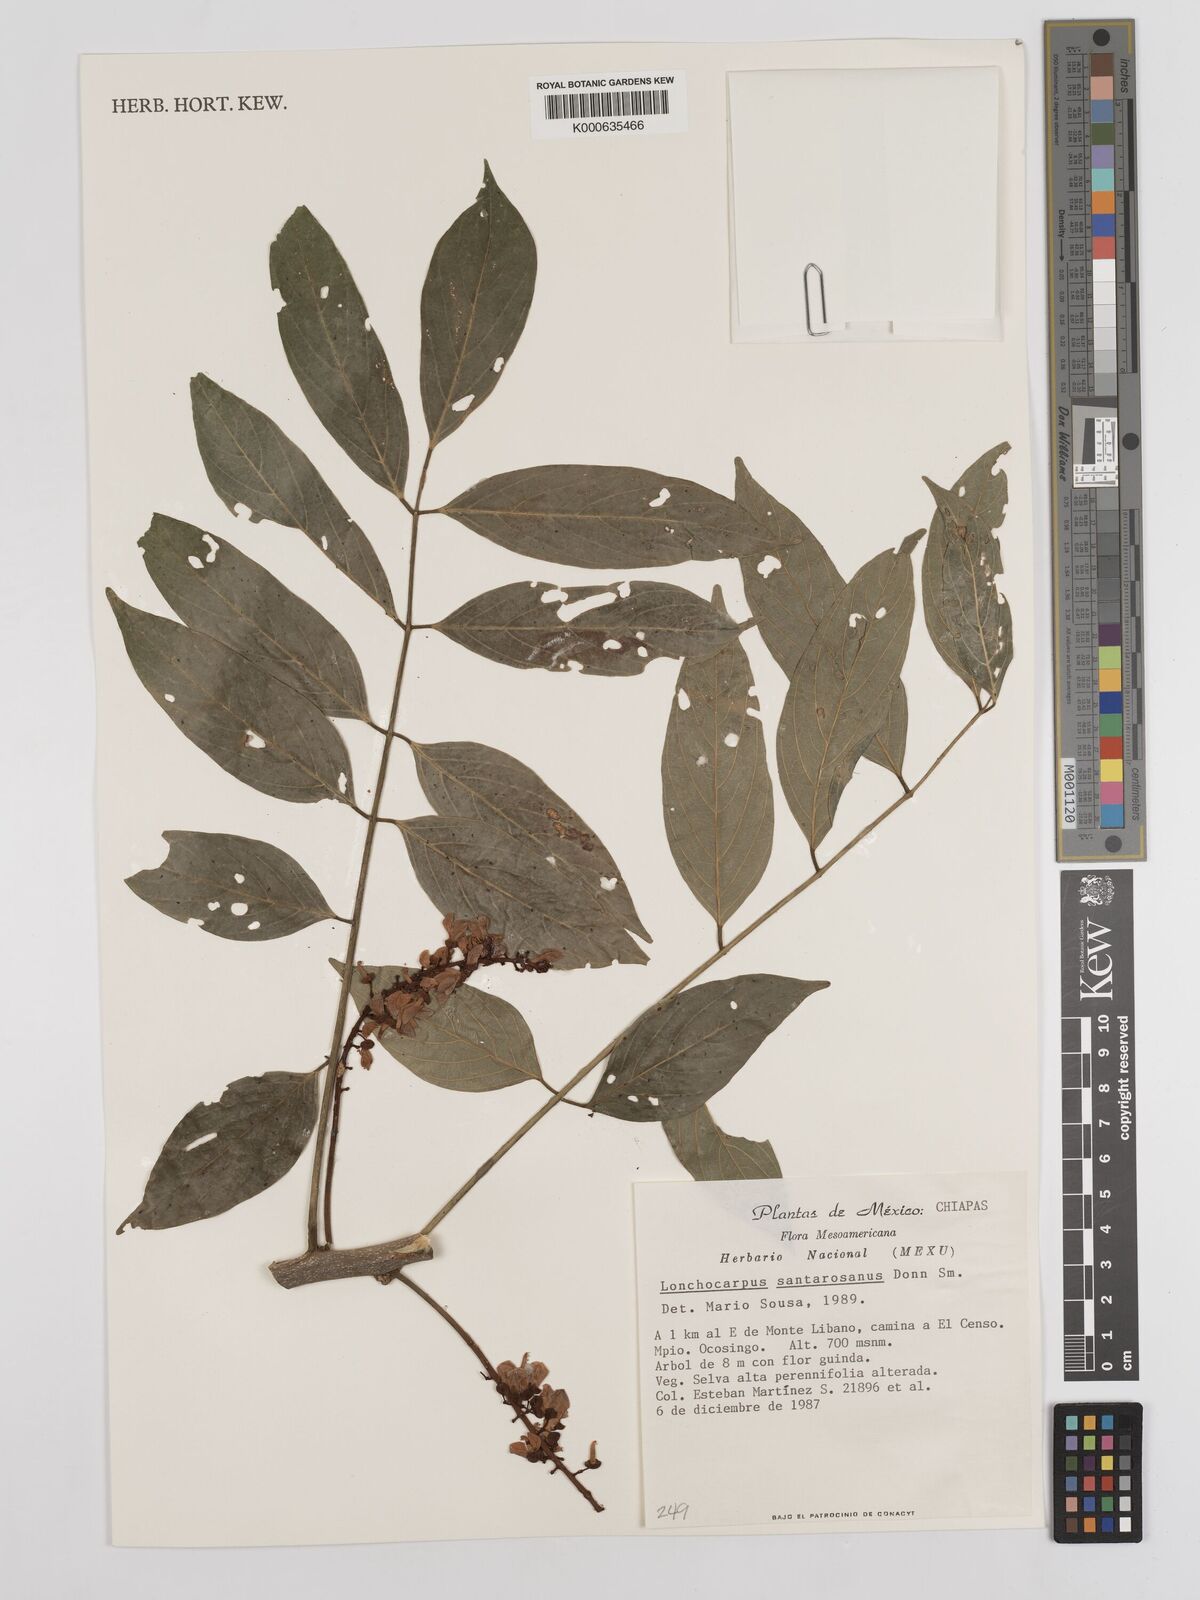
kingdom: Plantae
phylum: Tracheophyta
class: Magnoliopsida
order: Fabales
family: Fabaceae
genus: Lonchocarpus
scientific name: Lonchocarpus santarosanus
